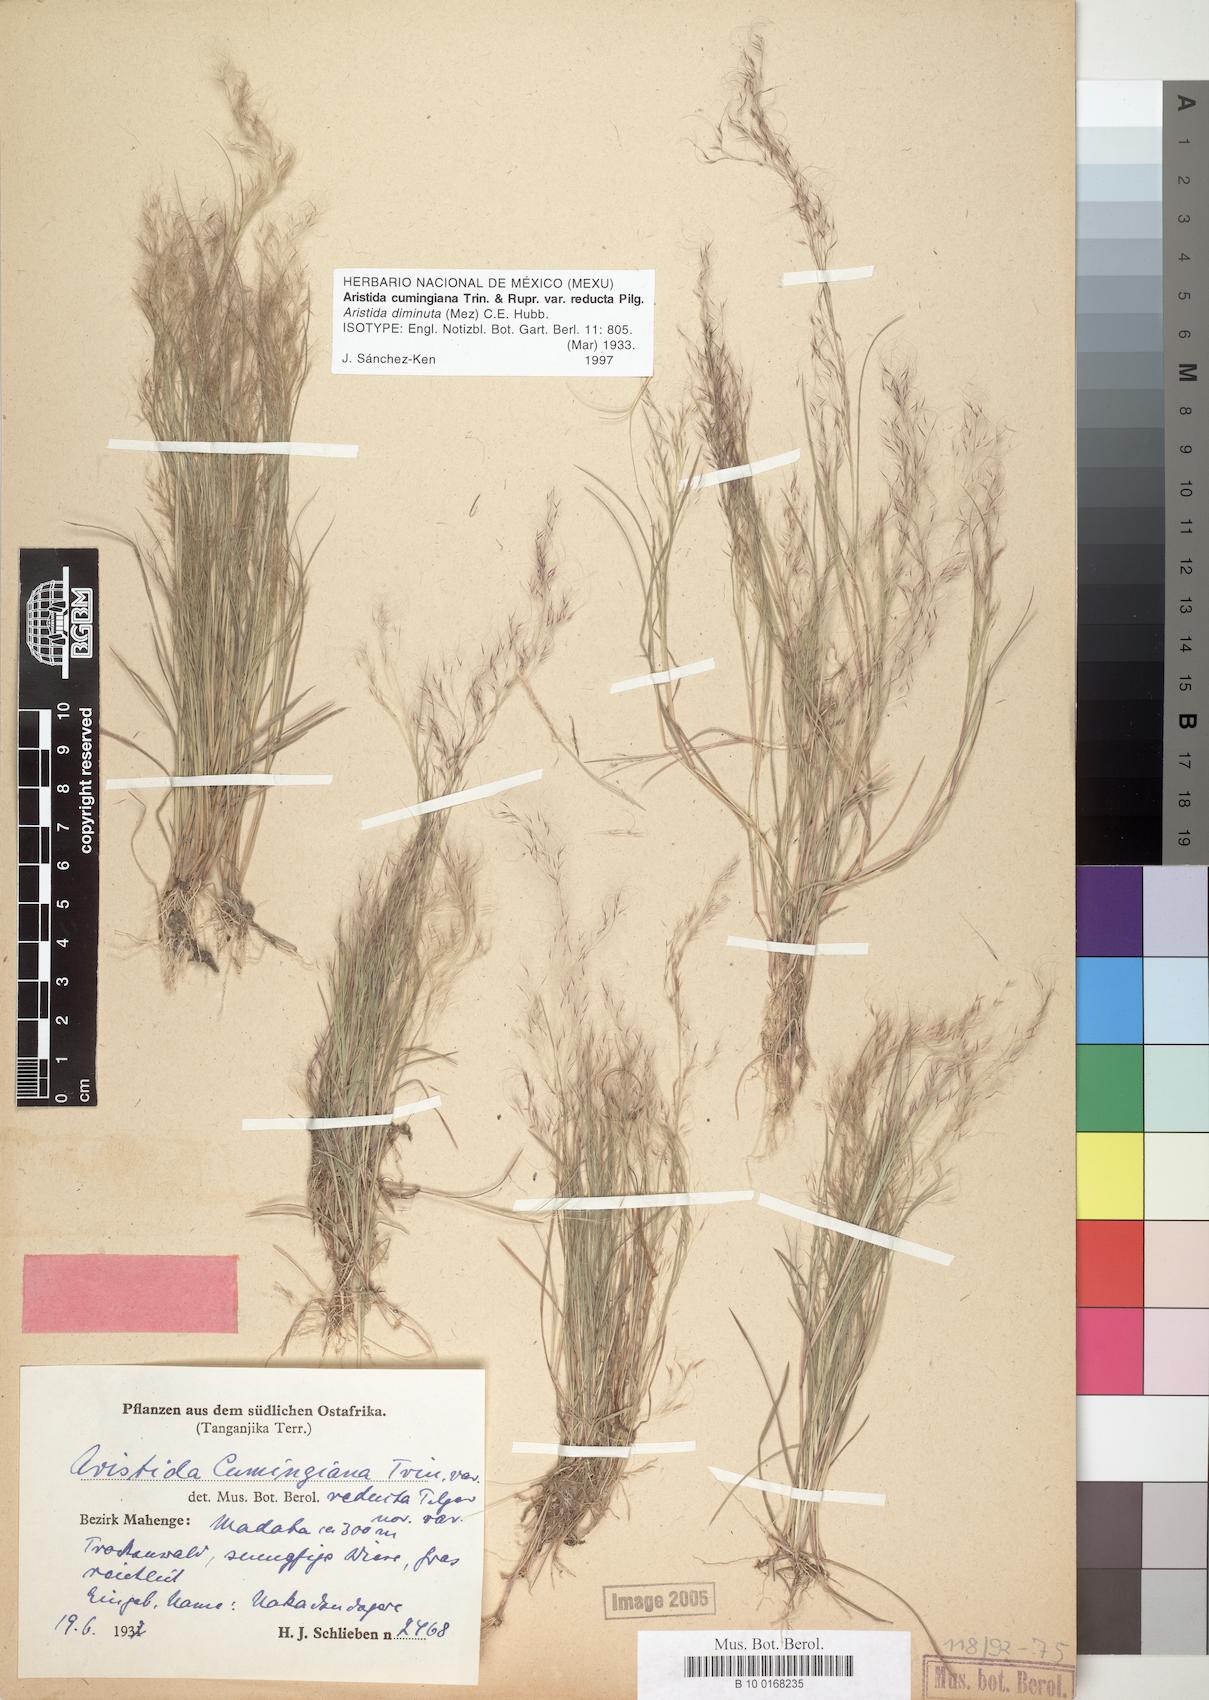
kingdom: Plantae
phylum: Tracheophyta
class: Liliopsida
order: Poales
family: Poaceae
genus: Aristida
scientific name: Aristida diminuta
